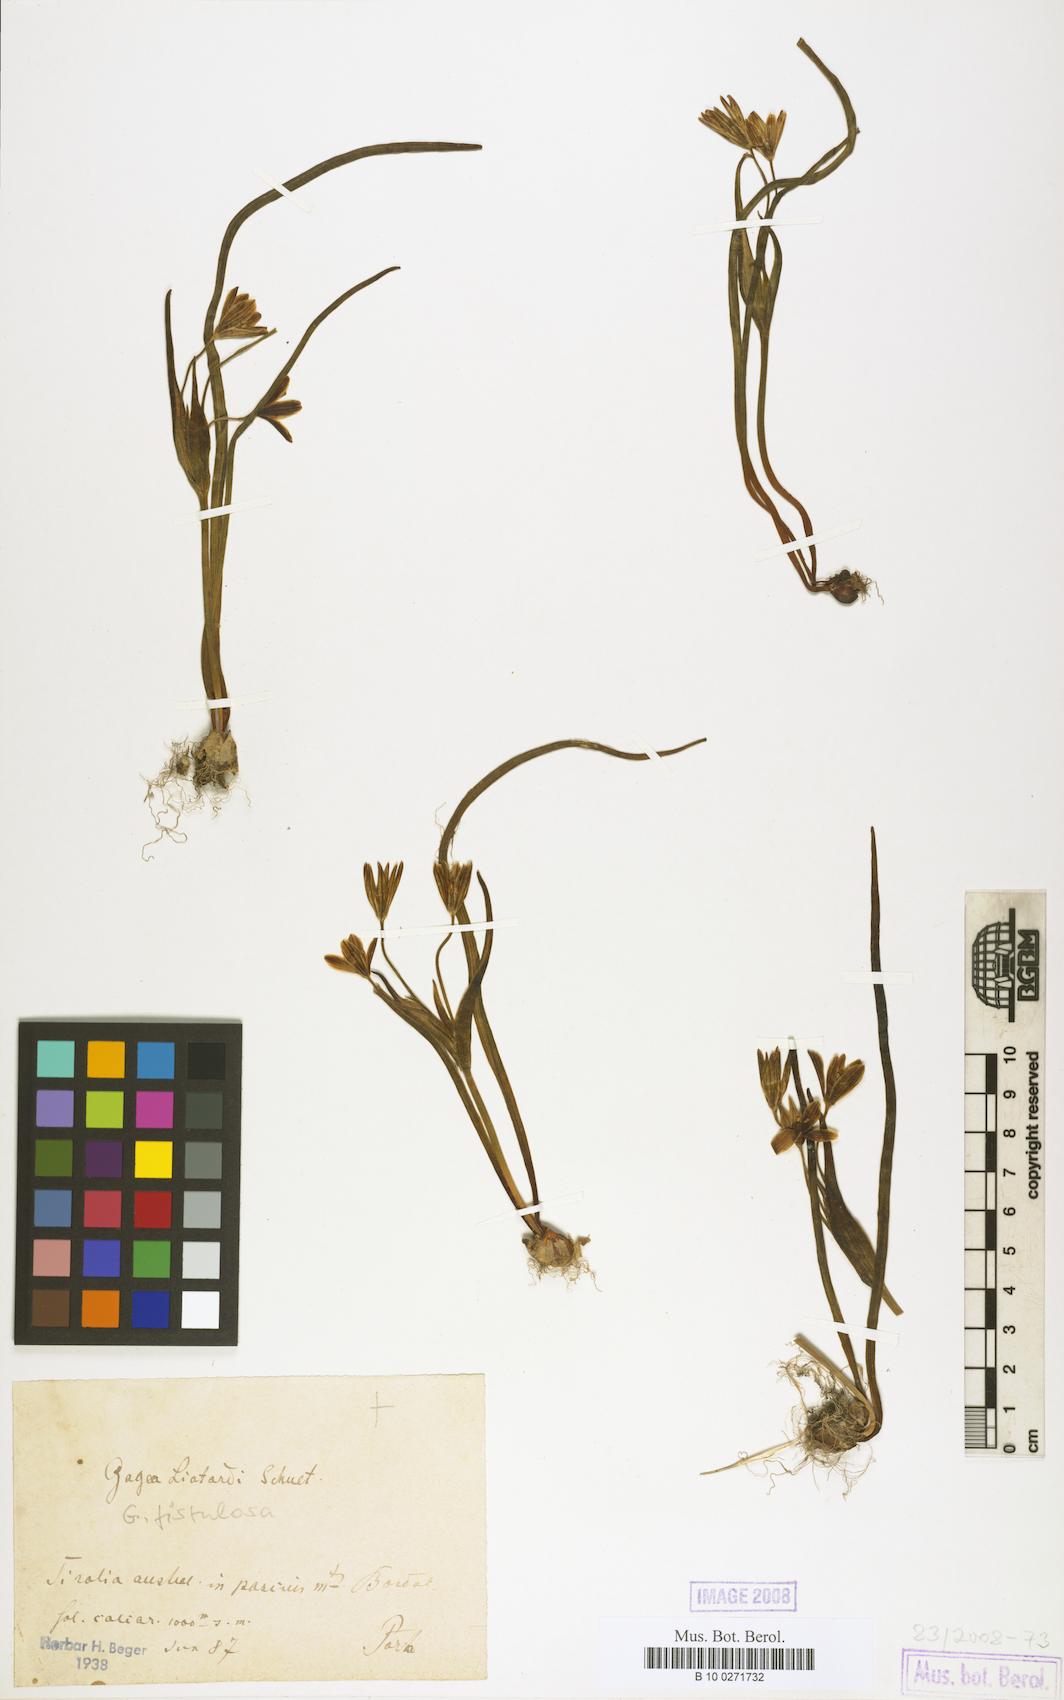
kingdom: Plantae
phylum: Tracheophyta
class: Liliopsida
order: Liliales
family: Liliaceae
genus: Gagea
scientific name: Gagea bohemica
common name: Early star-of-bethlehem
